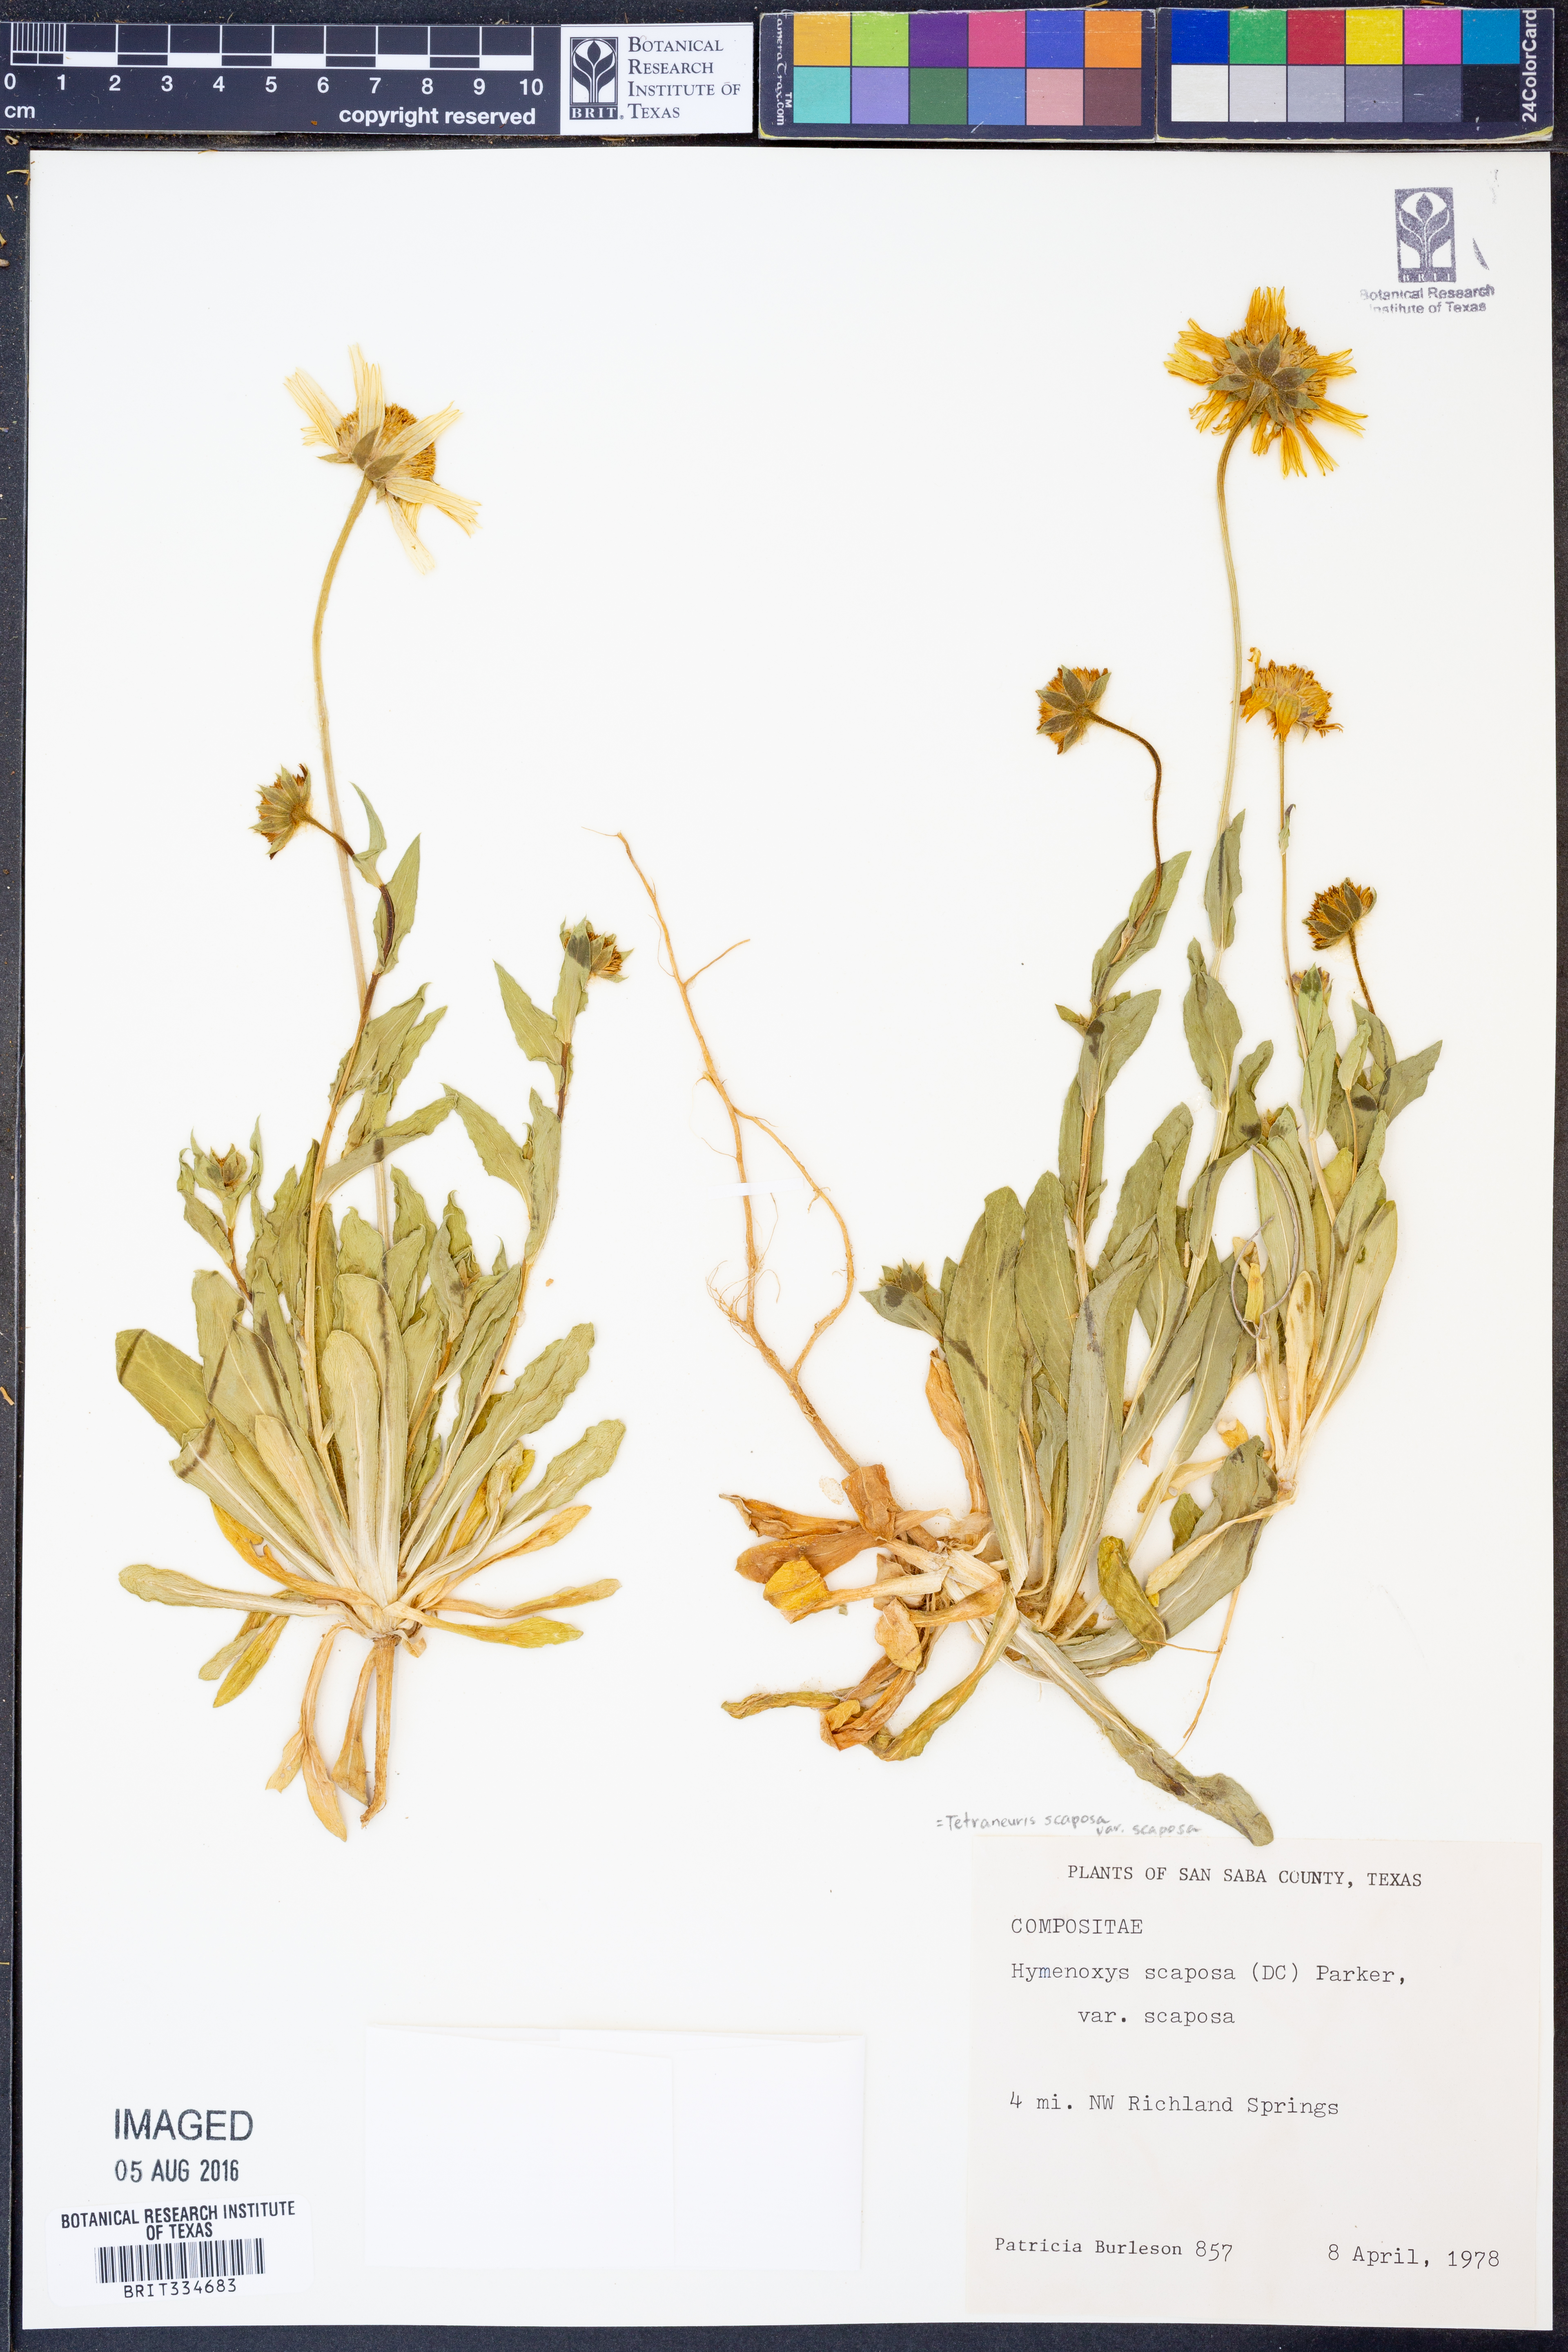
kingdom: Plantae
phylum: Tracheophyta
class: Magnoliopsida
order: Asterales
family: Asteraceae
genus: Tetraneuris
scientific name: Tetraneuris scaposa
